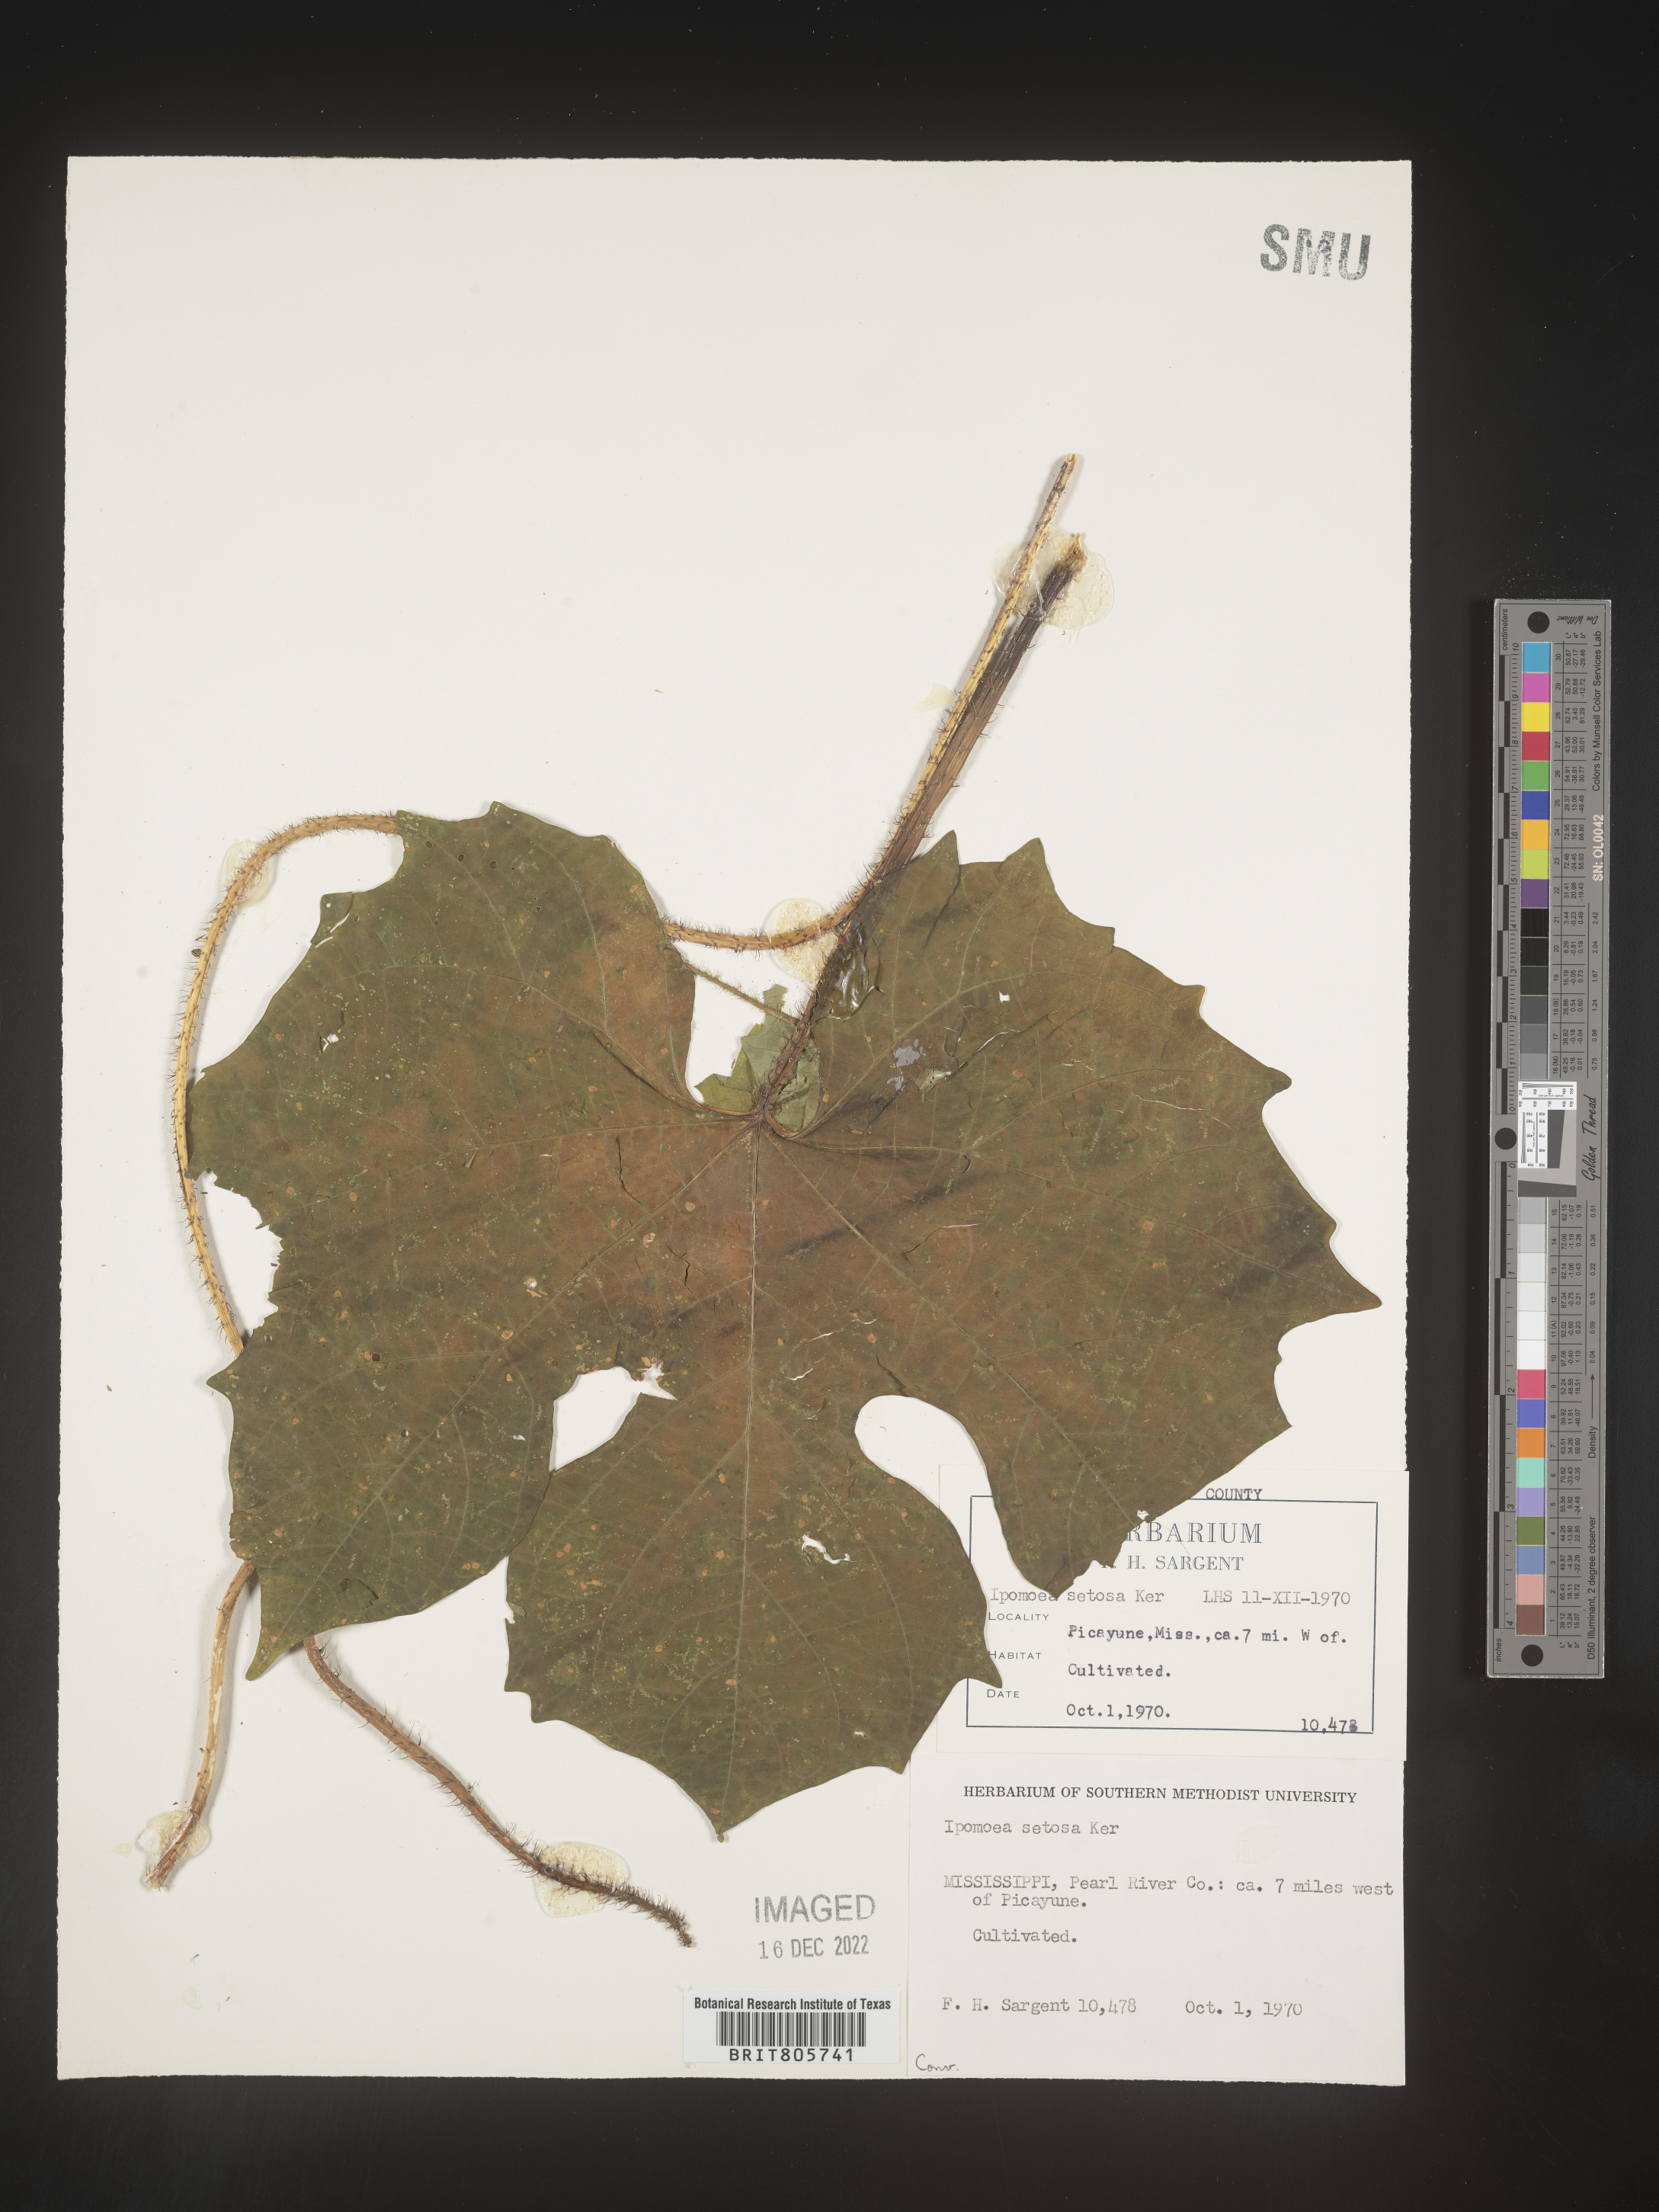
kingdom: Plantae
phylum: Tracheophyta
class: Magnoliopsida
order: Solanales
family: Convolvulaceae
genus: Ipomoea
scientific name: Ipomoea coccinea
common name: Red morning-glory
